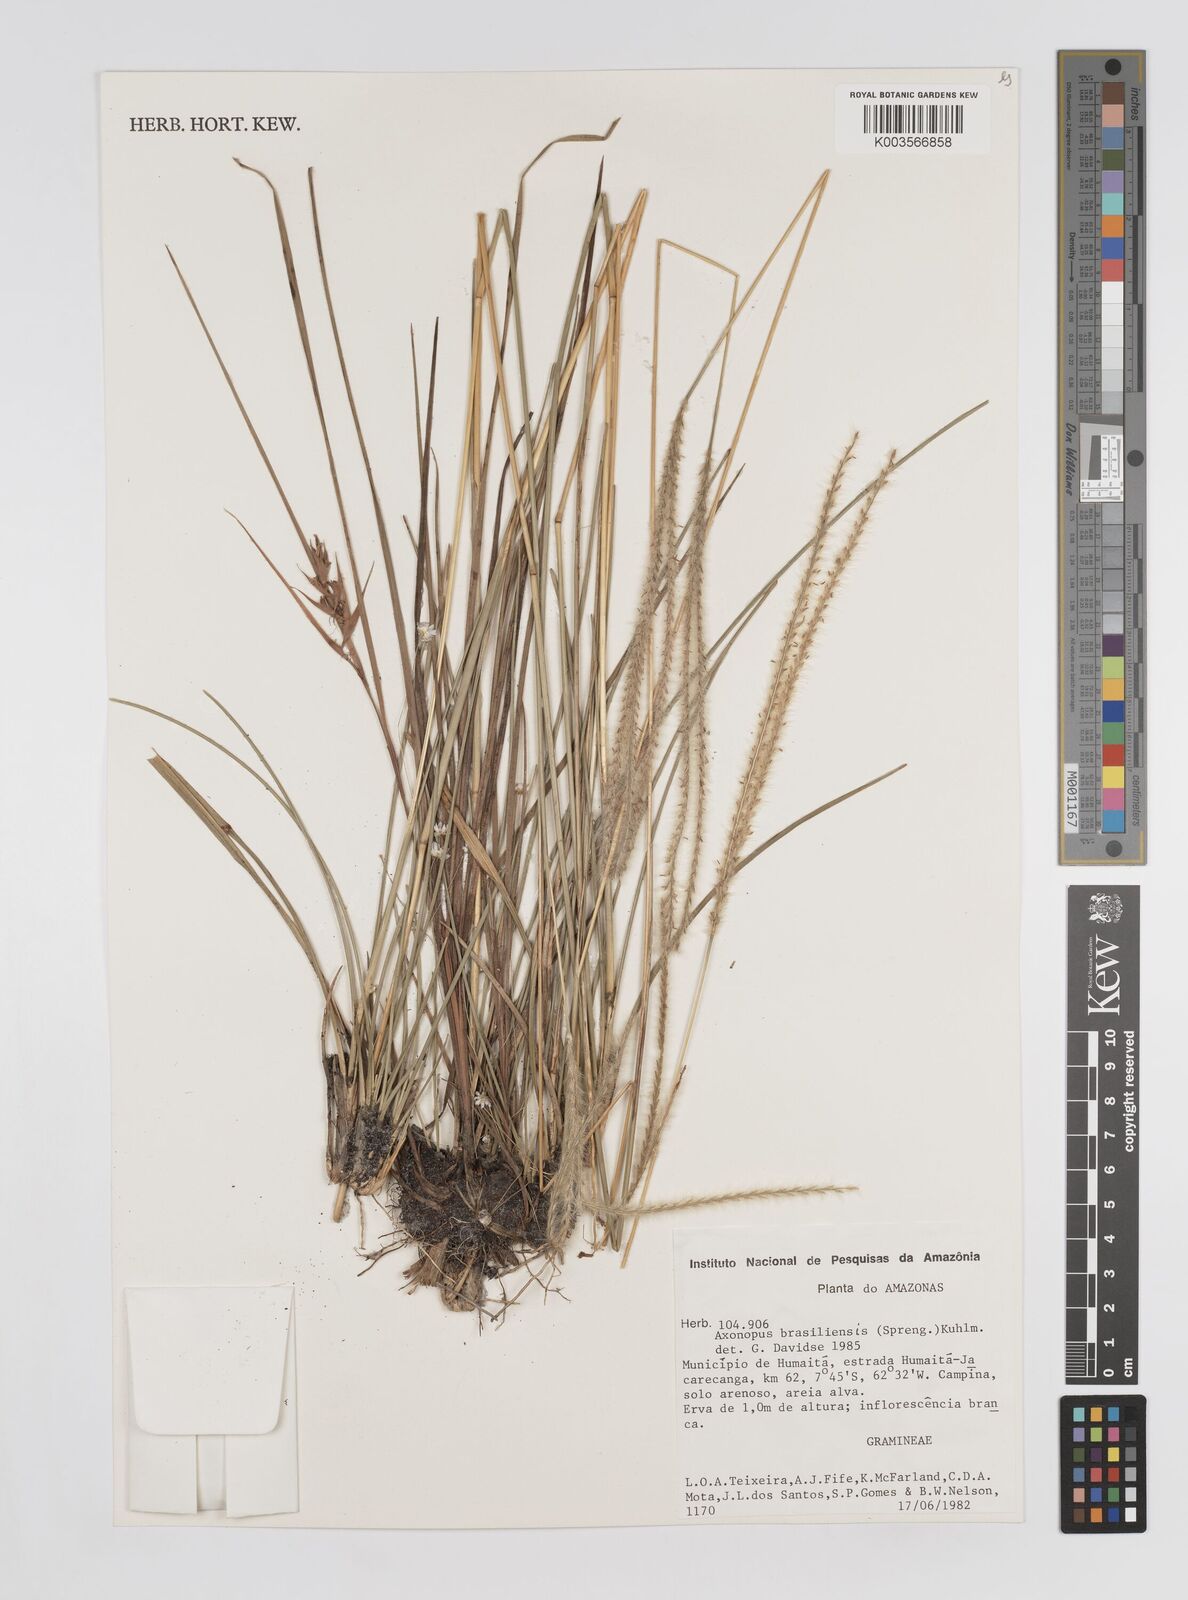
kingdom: Plantae
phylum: Tracheophyta
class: Liliopsida
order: Poales
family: Poaceae
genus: Axonopus
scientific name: Axonopus brasiliensis
